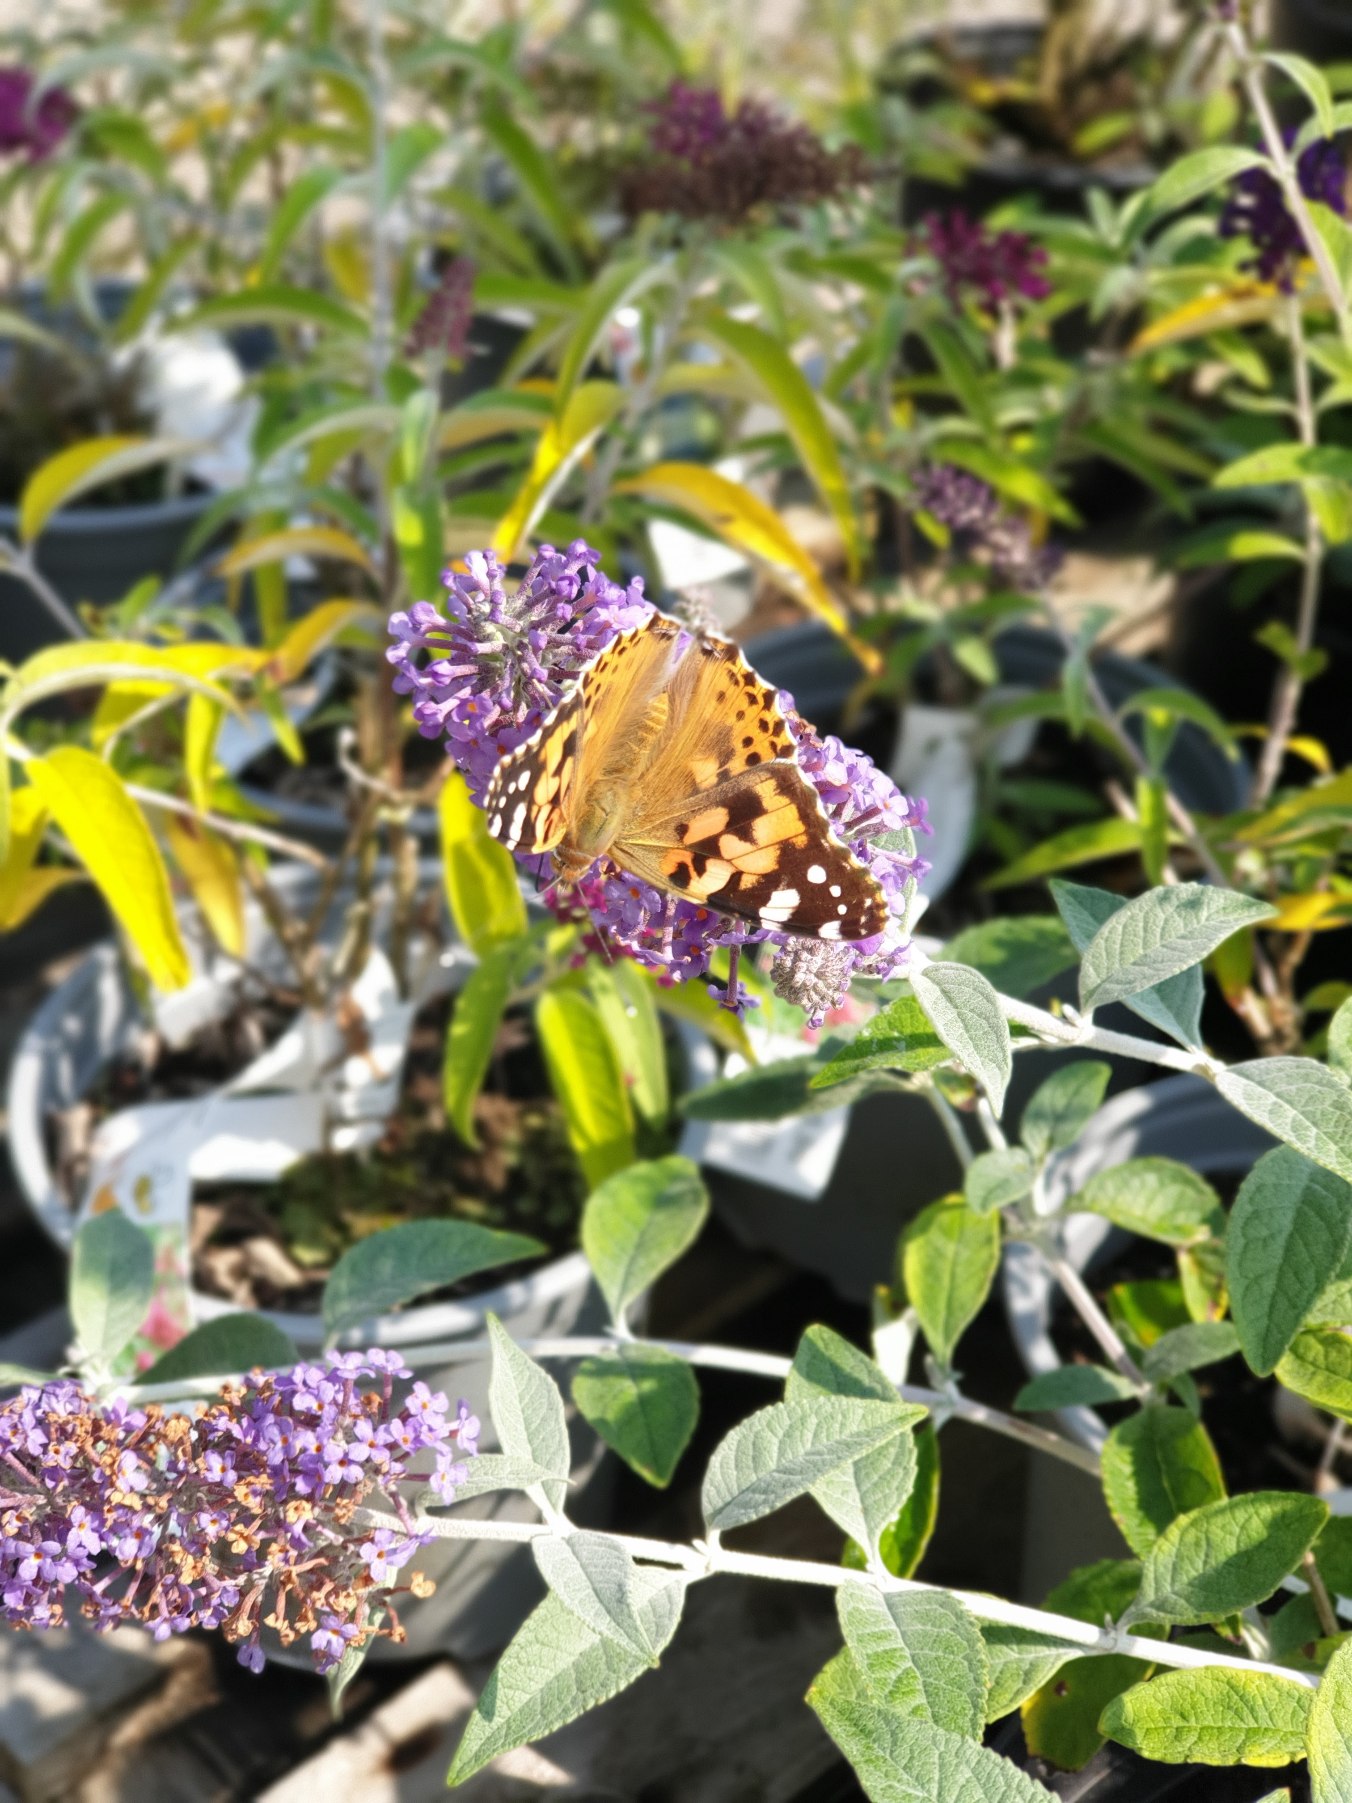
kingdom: Animalia
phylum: Arthropoda
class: Insecta
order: Lepidoptera
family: Nymphalidae
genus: Vanessa
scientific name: Vanessa cardui
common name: Tidselsommerfugl
